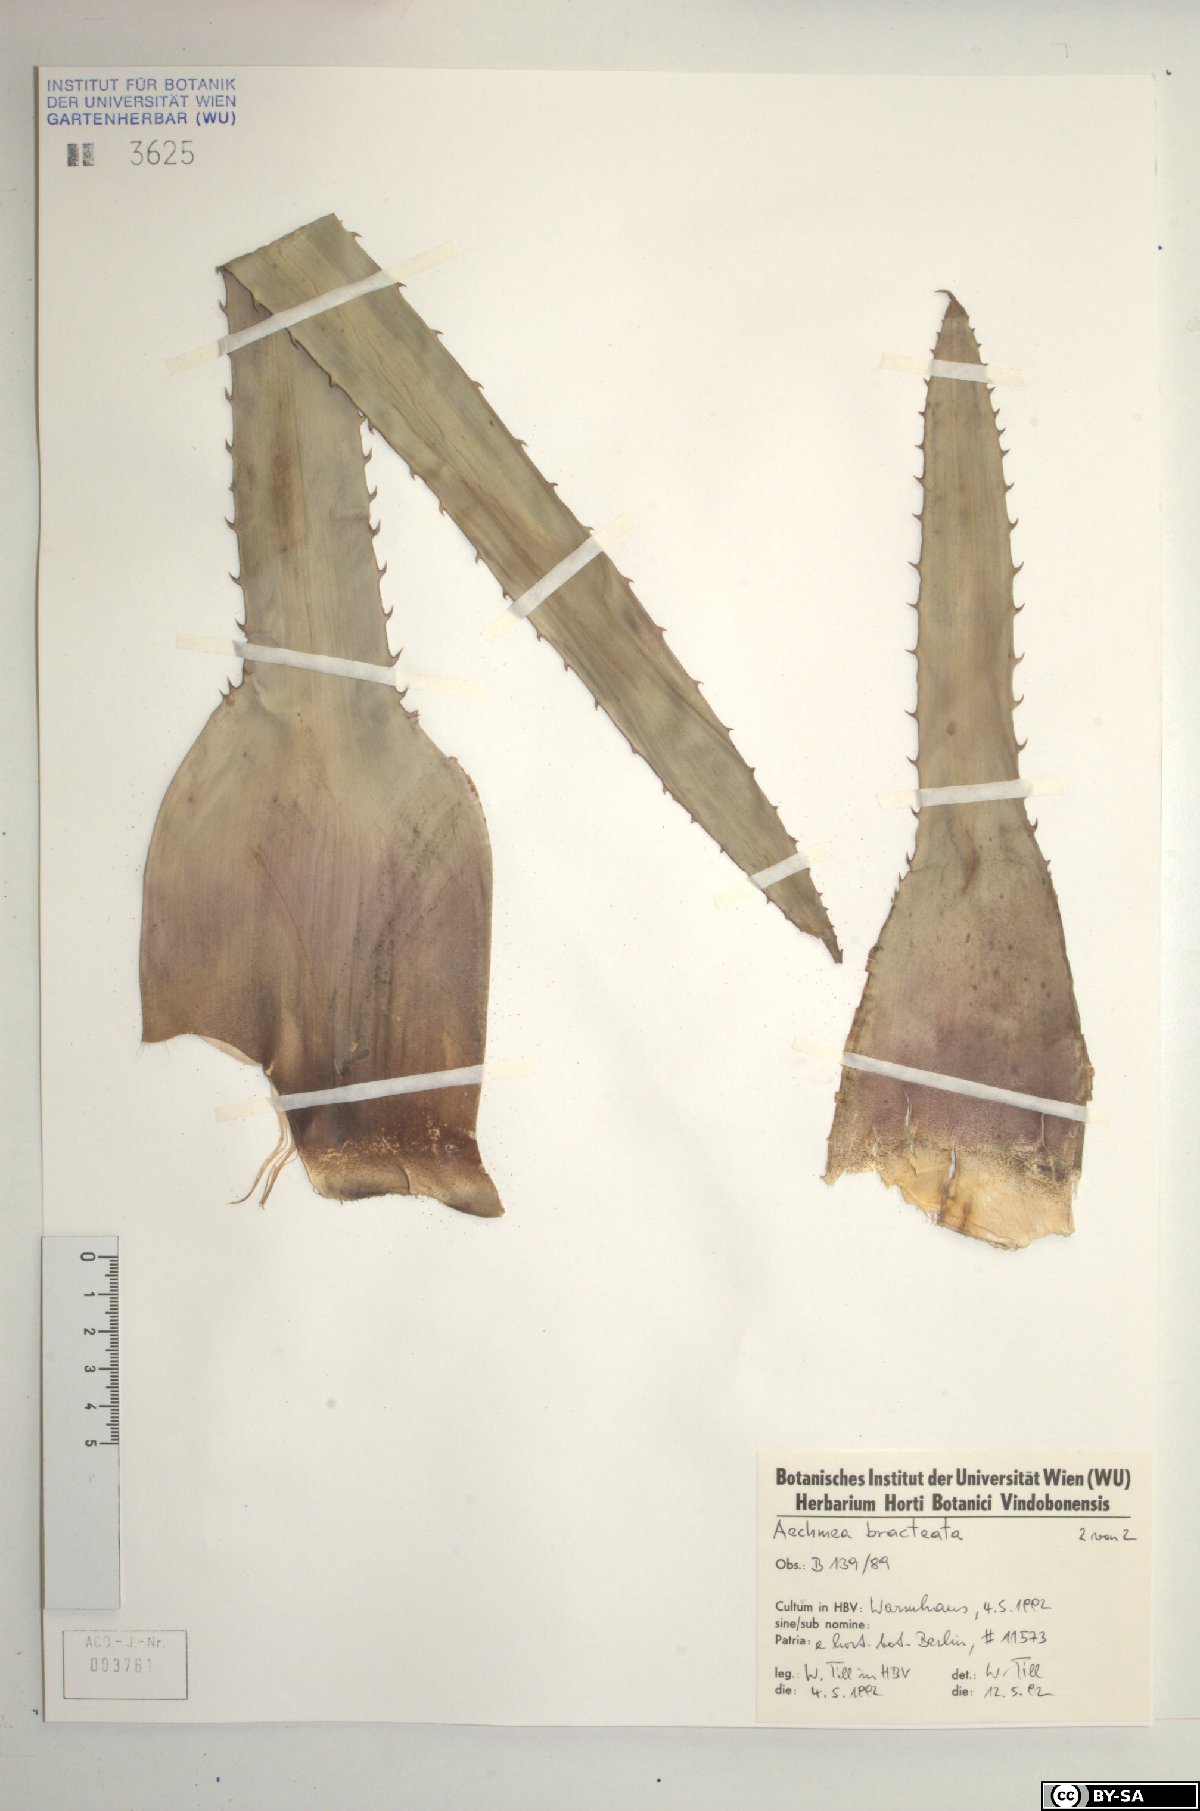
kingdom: Plantae
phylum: Tracheophyta
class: Liliopsida
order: Poales
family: Bromeliaceae
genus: Aechmea
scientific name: Aechmea bracteata
